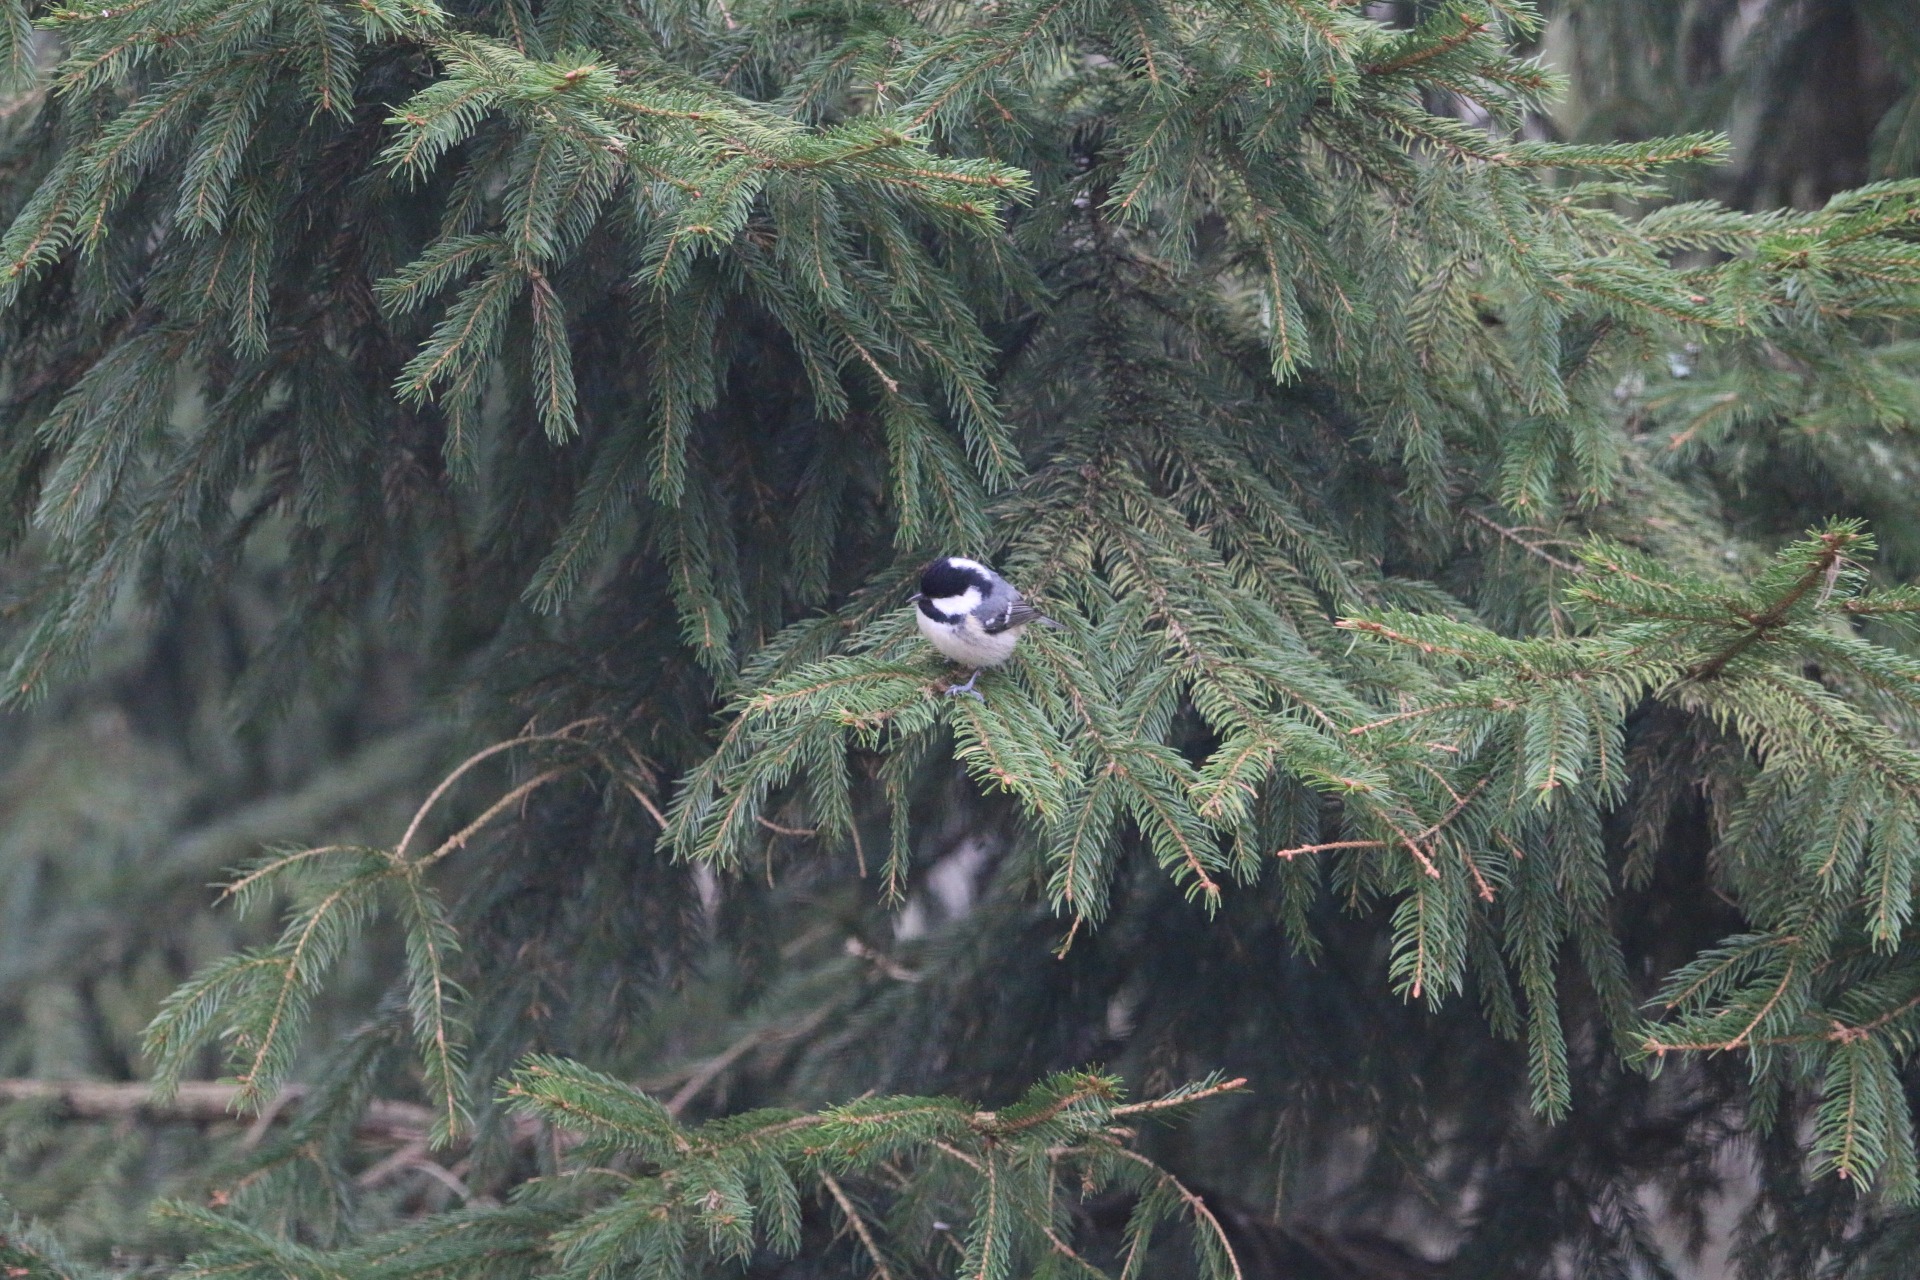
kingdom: Animalia
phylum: Chordata
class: Aves
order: Passeriformes
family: Paridae
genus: Periparus
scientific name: Periparus ater
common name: Sortmejse
